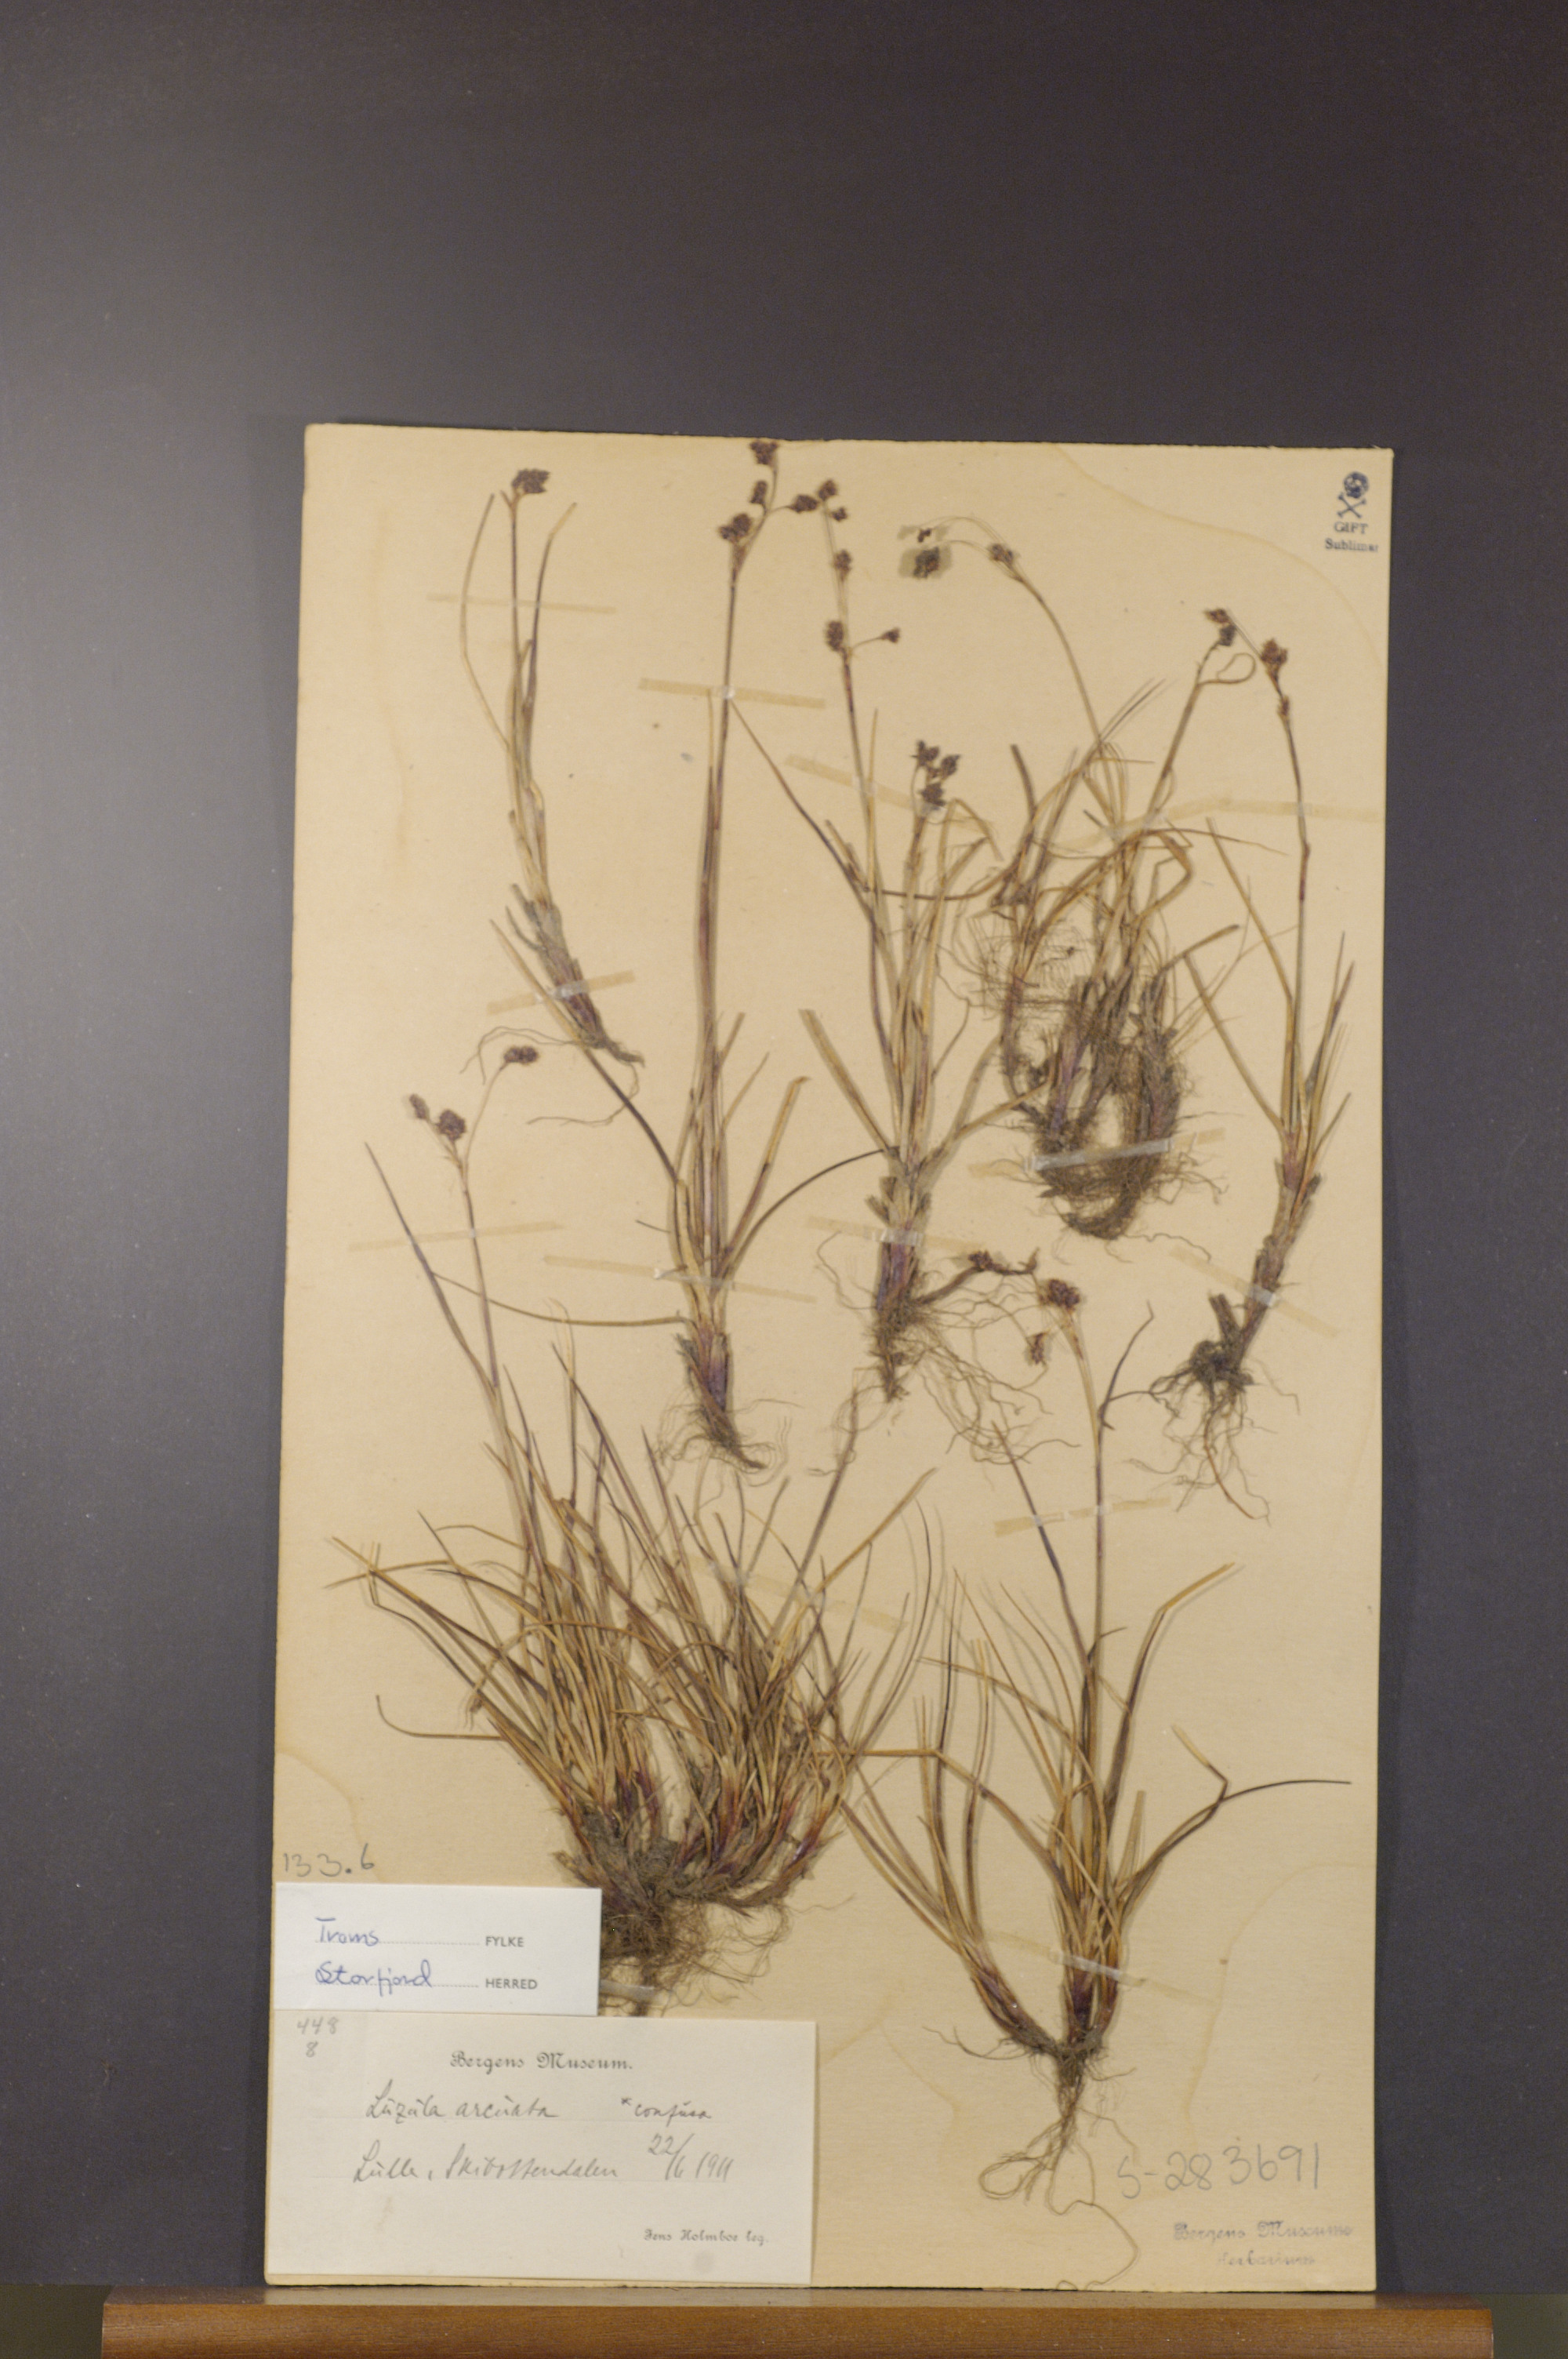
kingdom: Plantae
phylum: Tracheophyta
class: Liliopsida
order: Poales
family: Juncaceae
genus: Luzula
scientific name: Luzula confusa
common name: Northern wood rush
